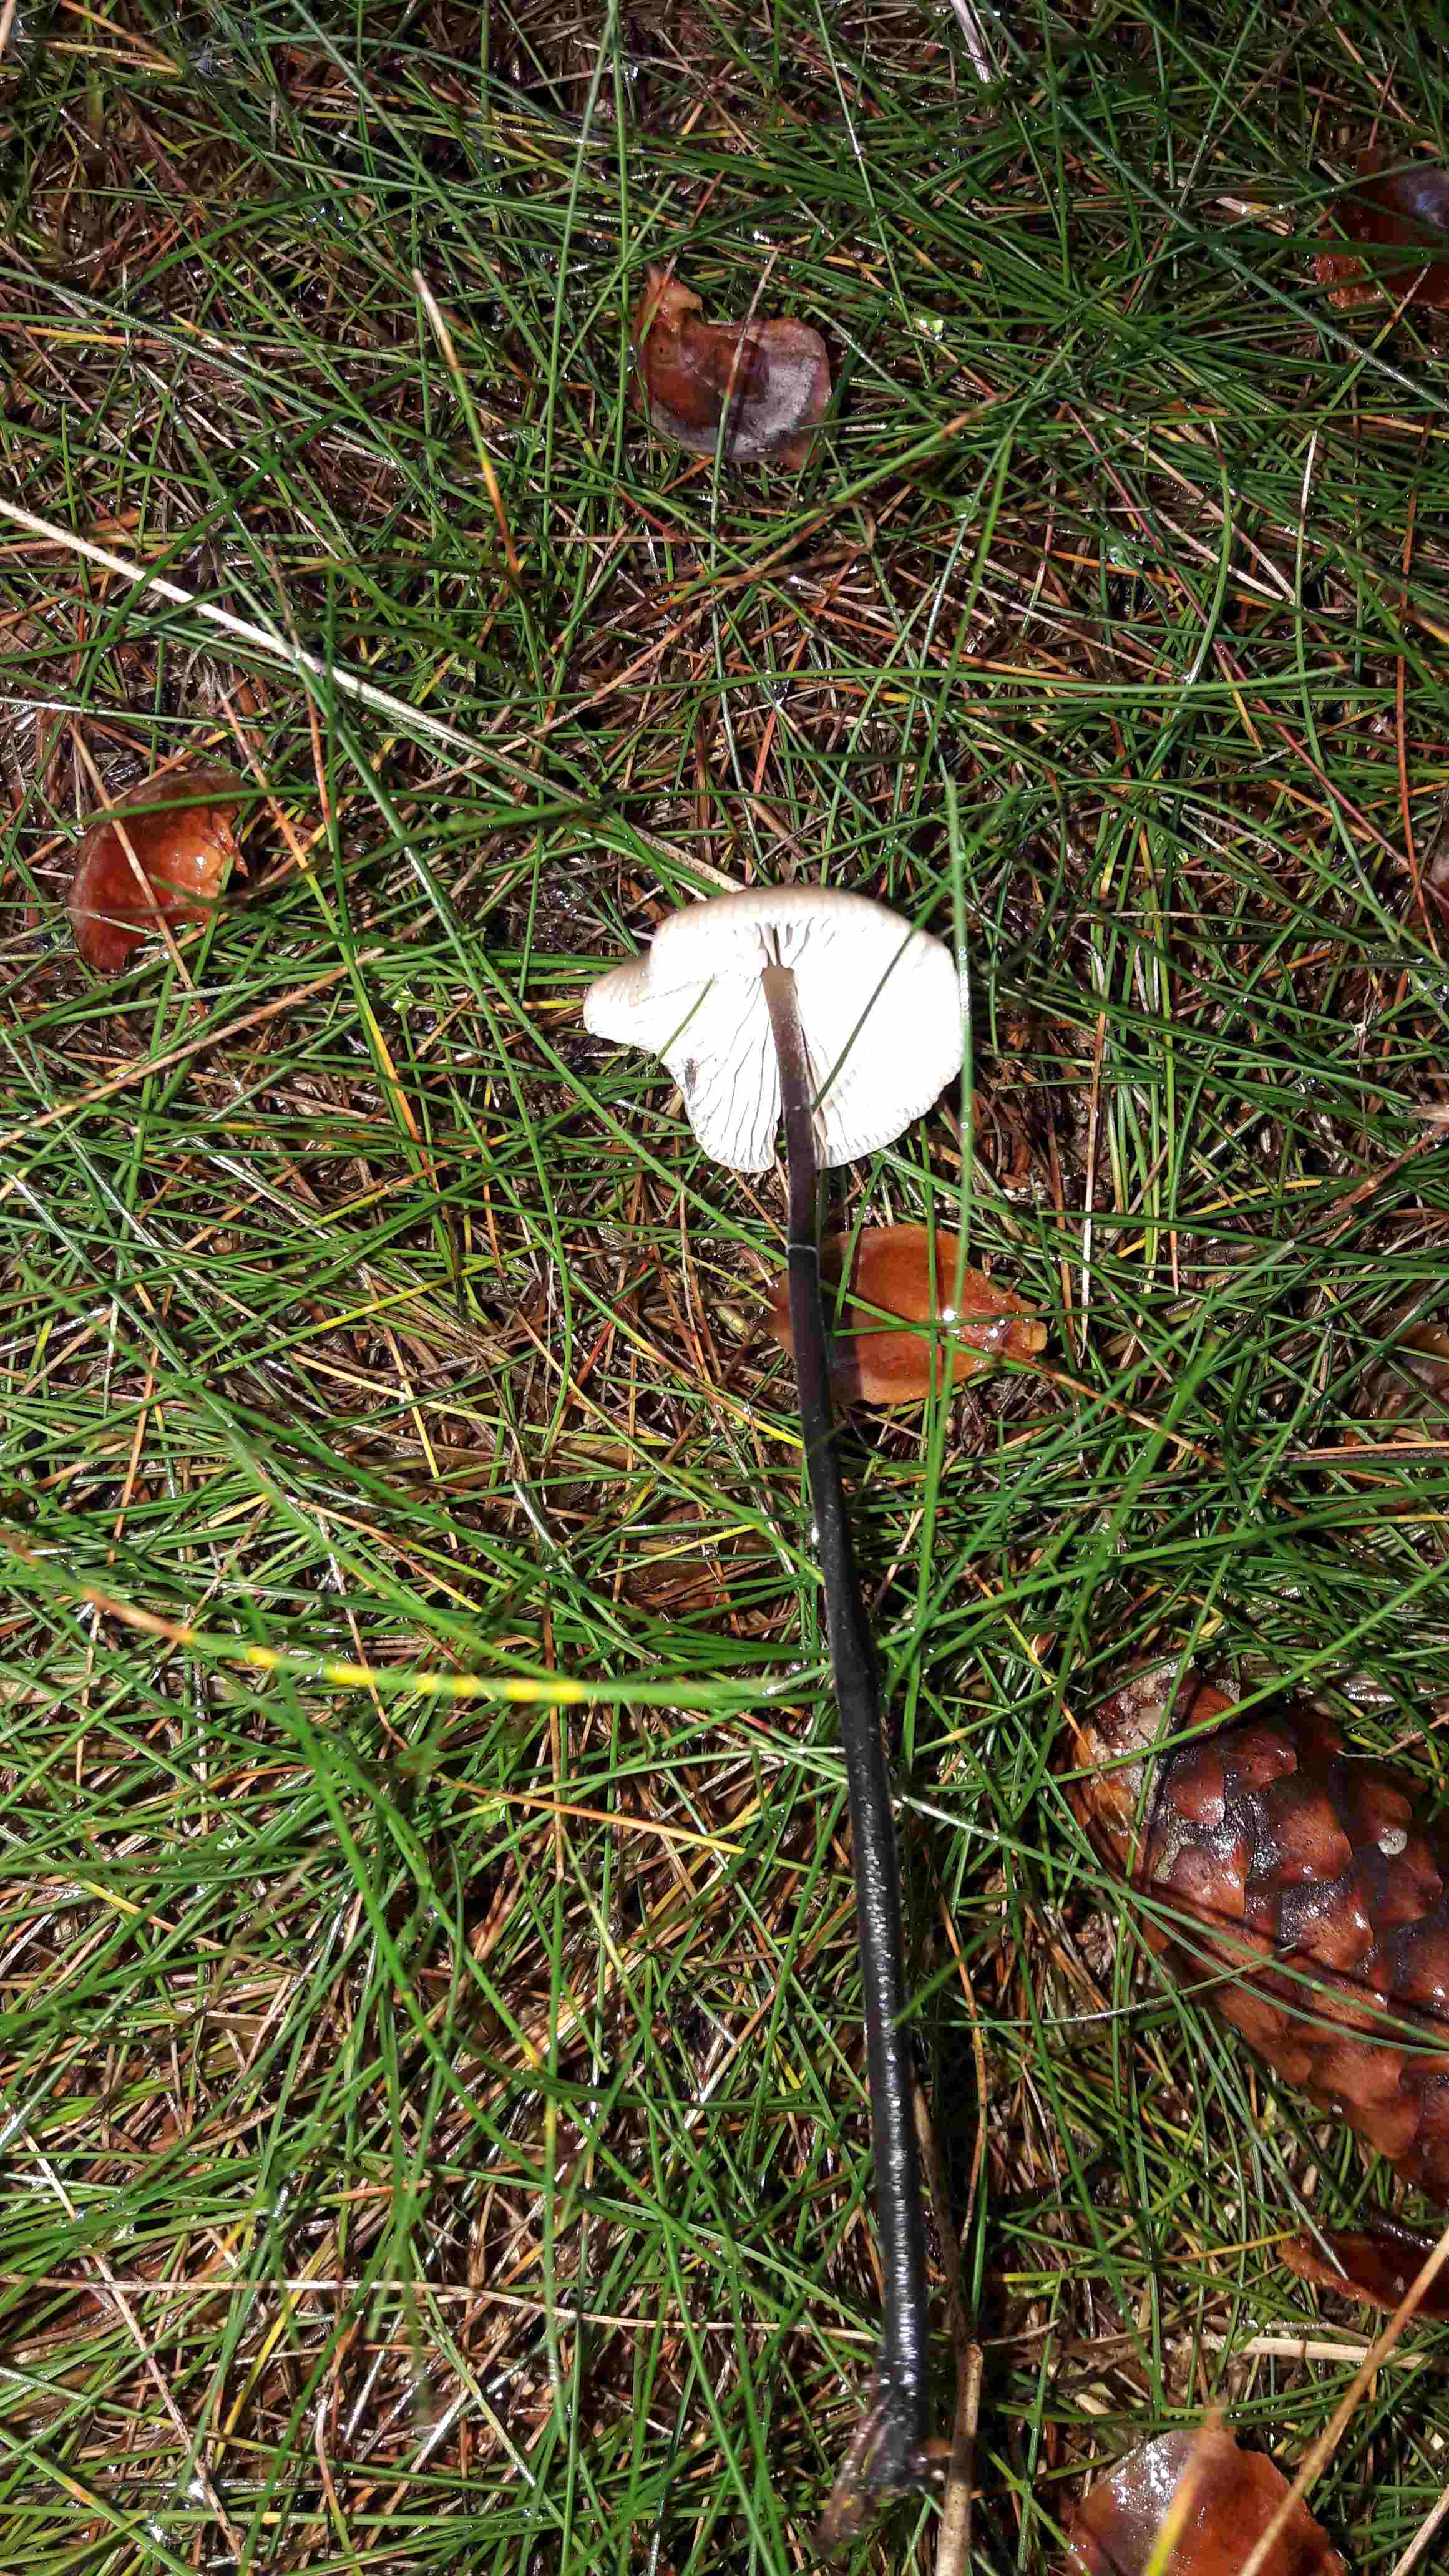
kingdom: Fungi
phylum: Basidiomycota
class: Agaricomycetes
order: Agaricales
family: Omphalotaceae
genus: Mycetinis
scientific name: Mycetinis alliaceus
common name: stor løghat
